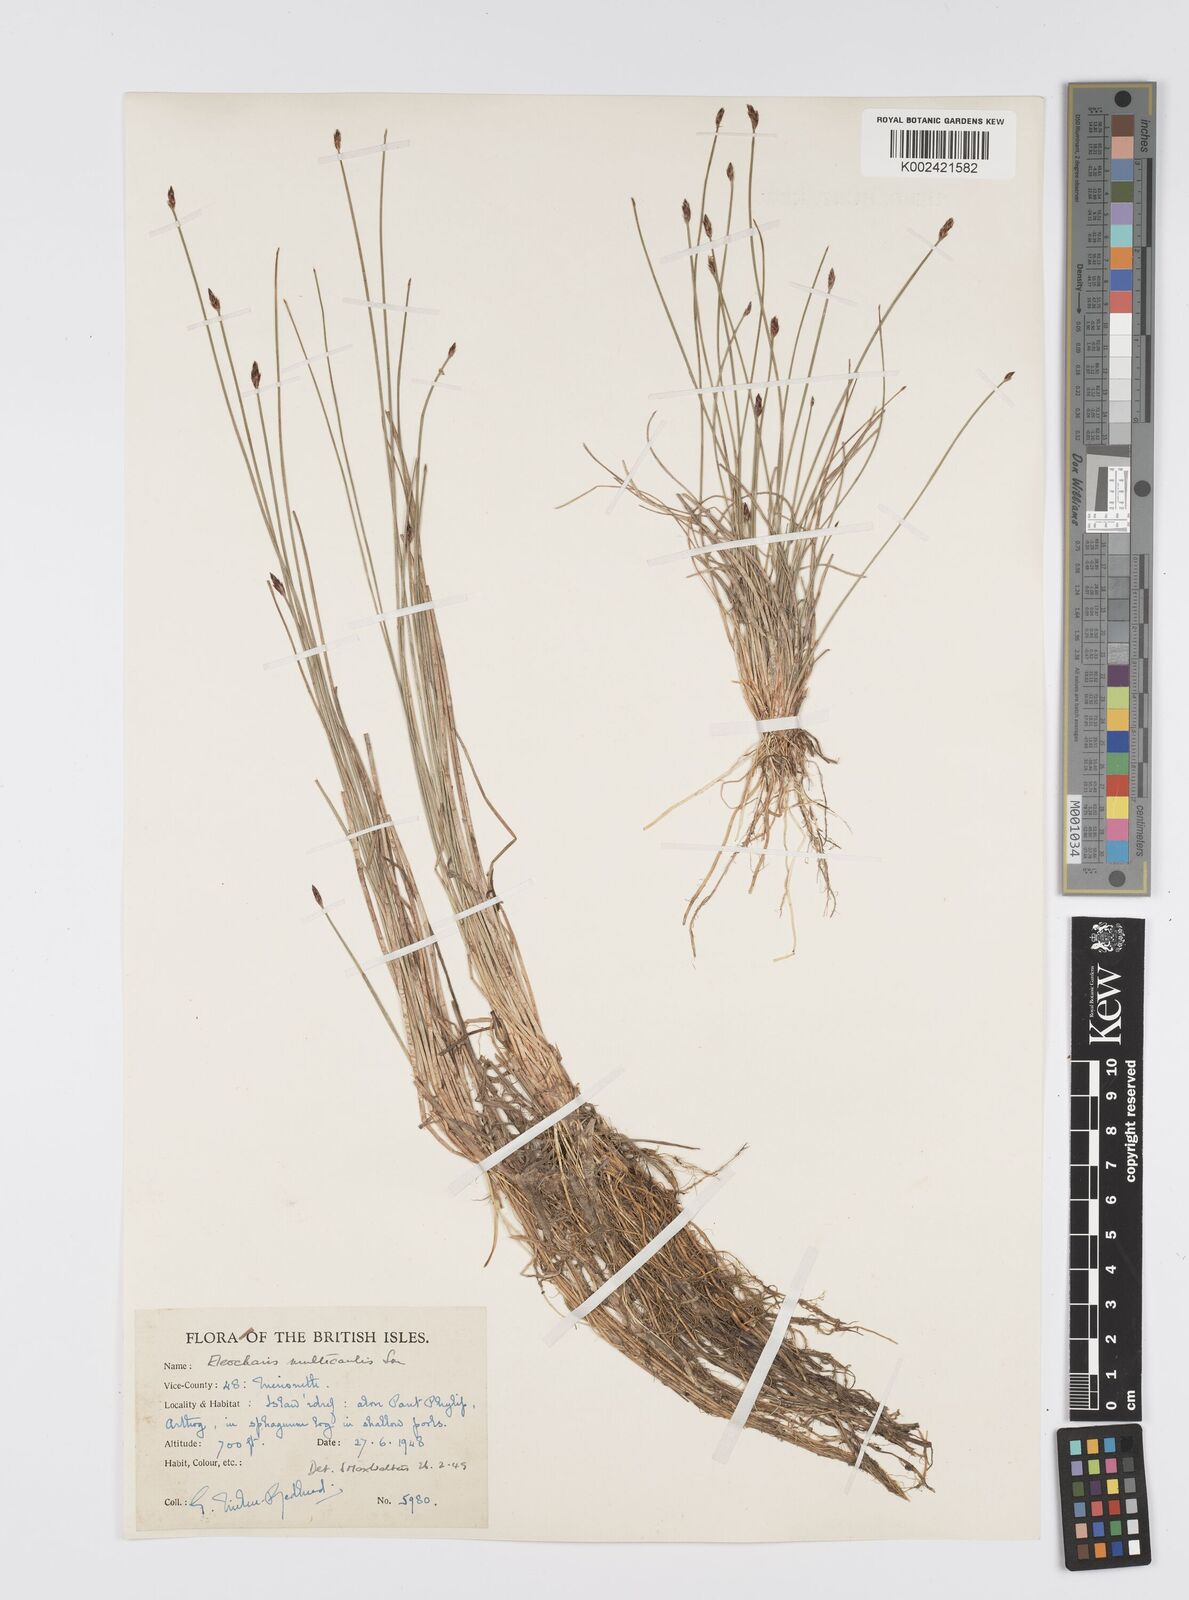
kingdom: Plantae
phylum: Tracheophyta
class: Liliopsida
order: Poales
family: Cyperaceae
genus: Eleocharis
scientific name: Eleocharis multicaulis
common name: Many-stalked spike-rush
